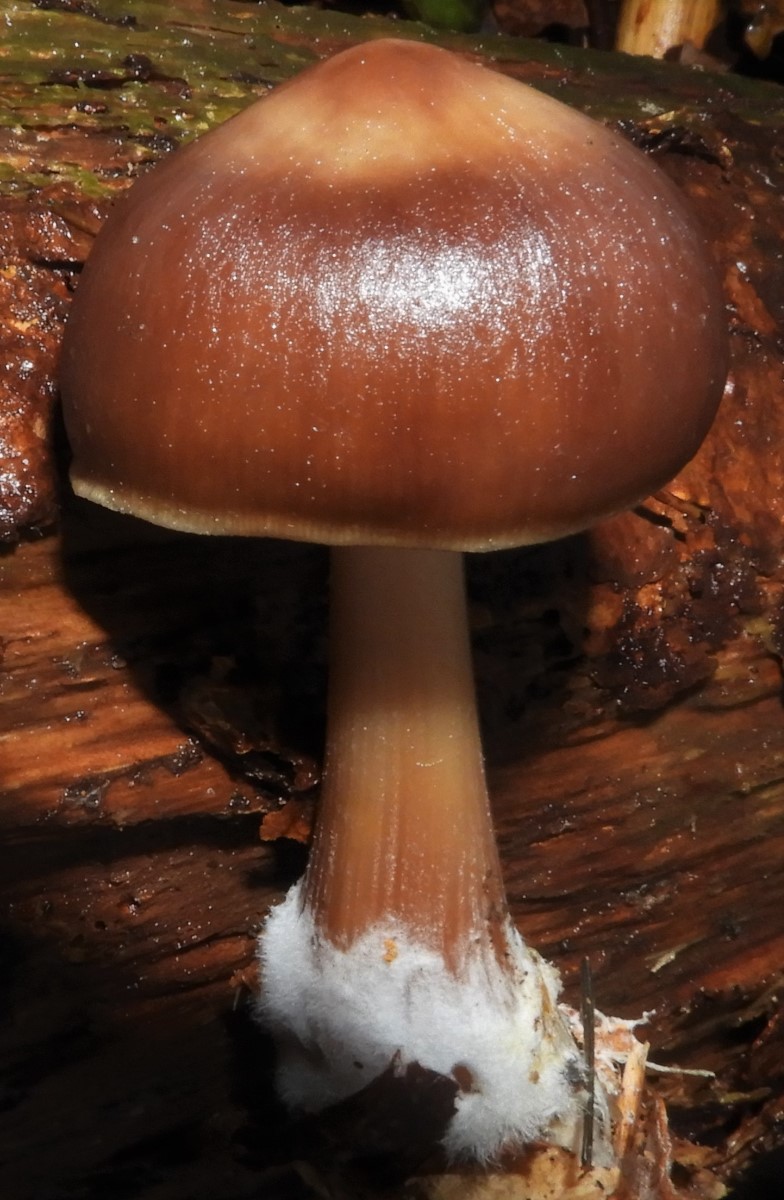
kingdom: Fungi
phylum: Basidiomycota
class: Agaricomycetes
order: Agaricales
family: Omphalotaceae
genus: Rhodocollybia
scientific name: Rhodocollybia
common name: fladhat
